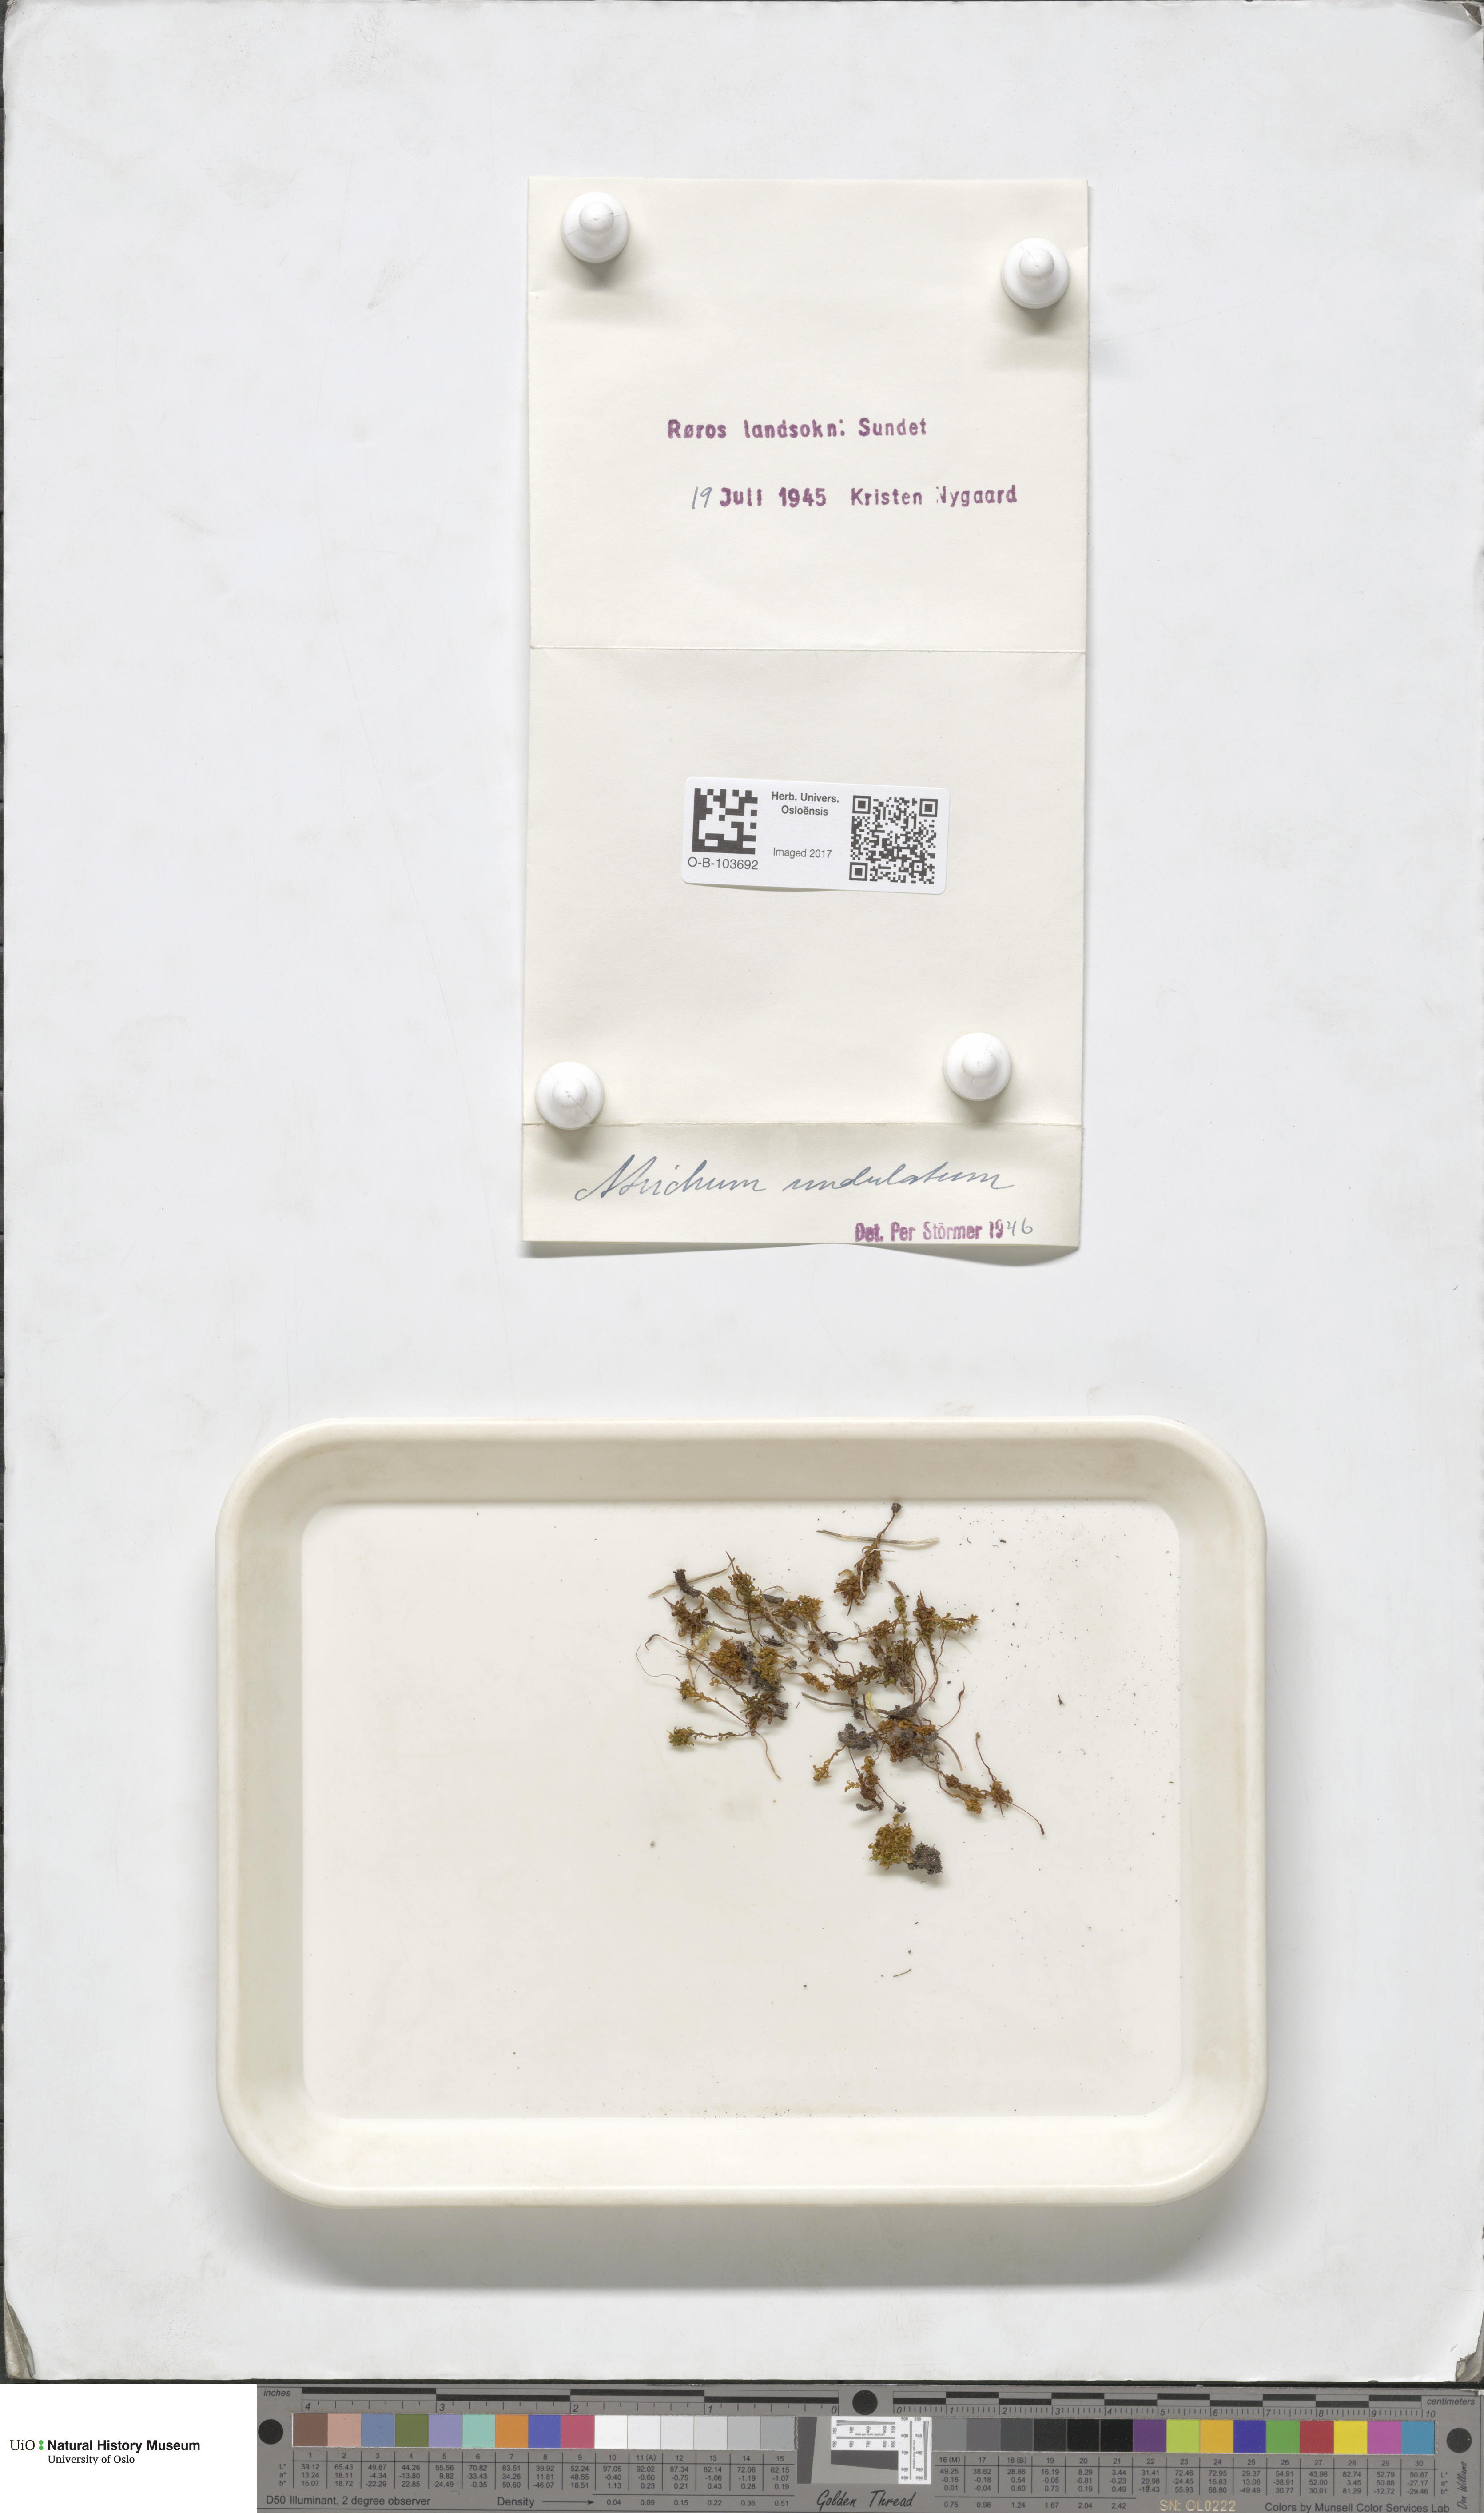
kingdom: Plantae
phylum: Bryophyta
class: Polytrichopsida
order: Polytrichales
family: Polytrichaceae
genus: Atrichum
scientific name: Atrichum undulatum
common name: Common smoothcap
